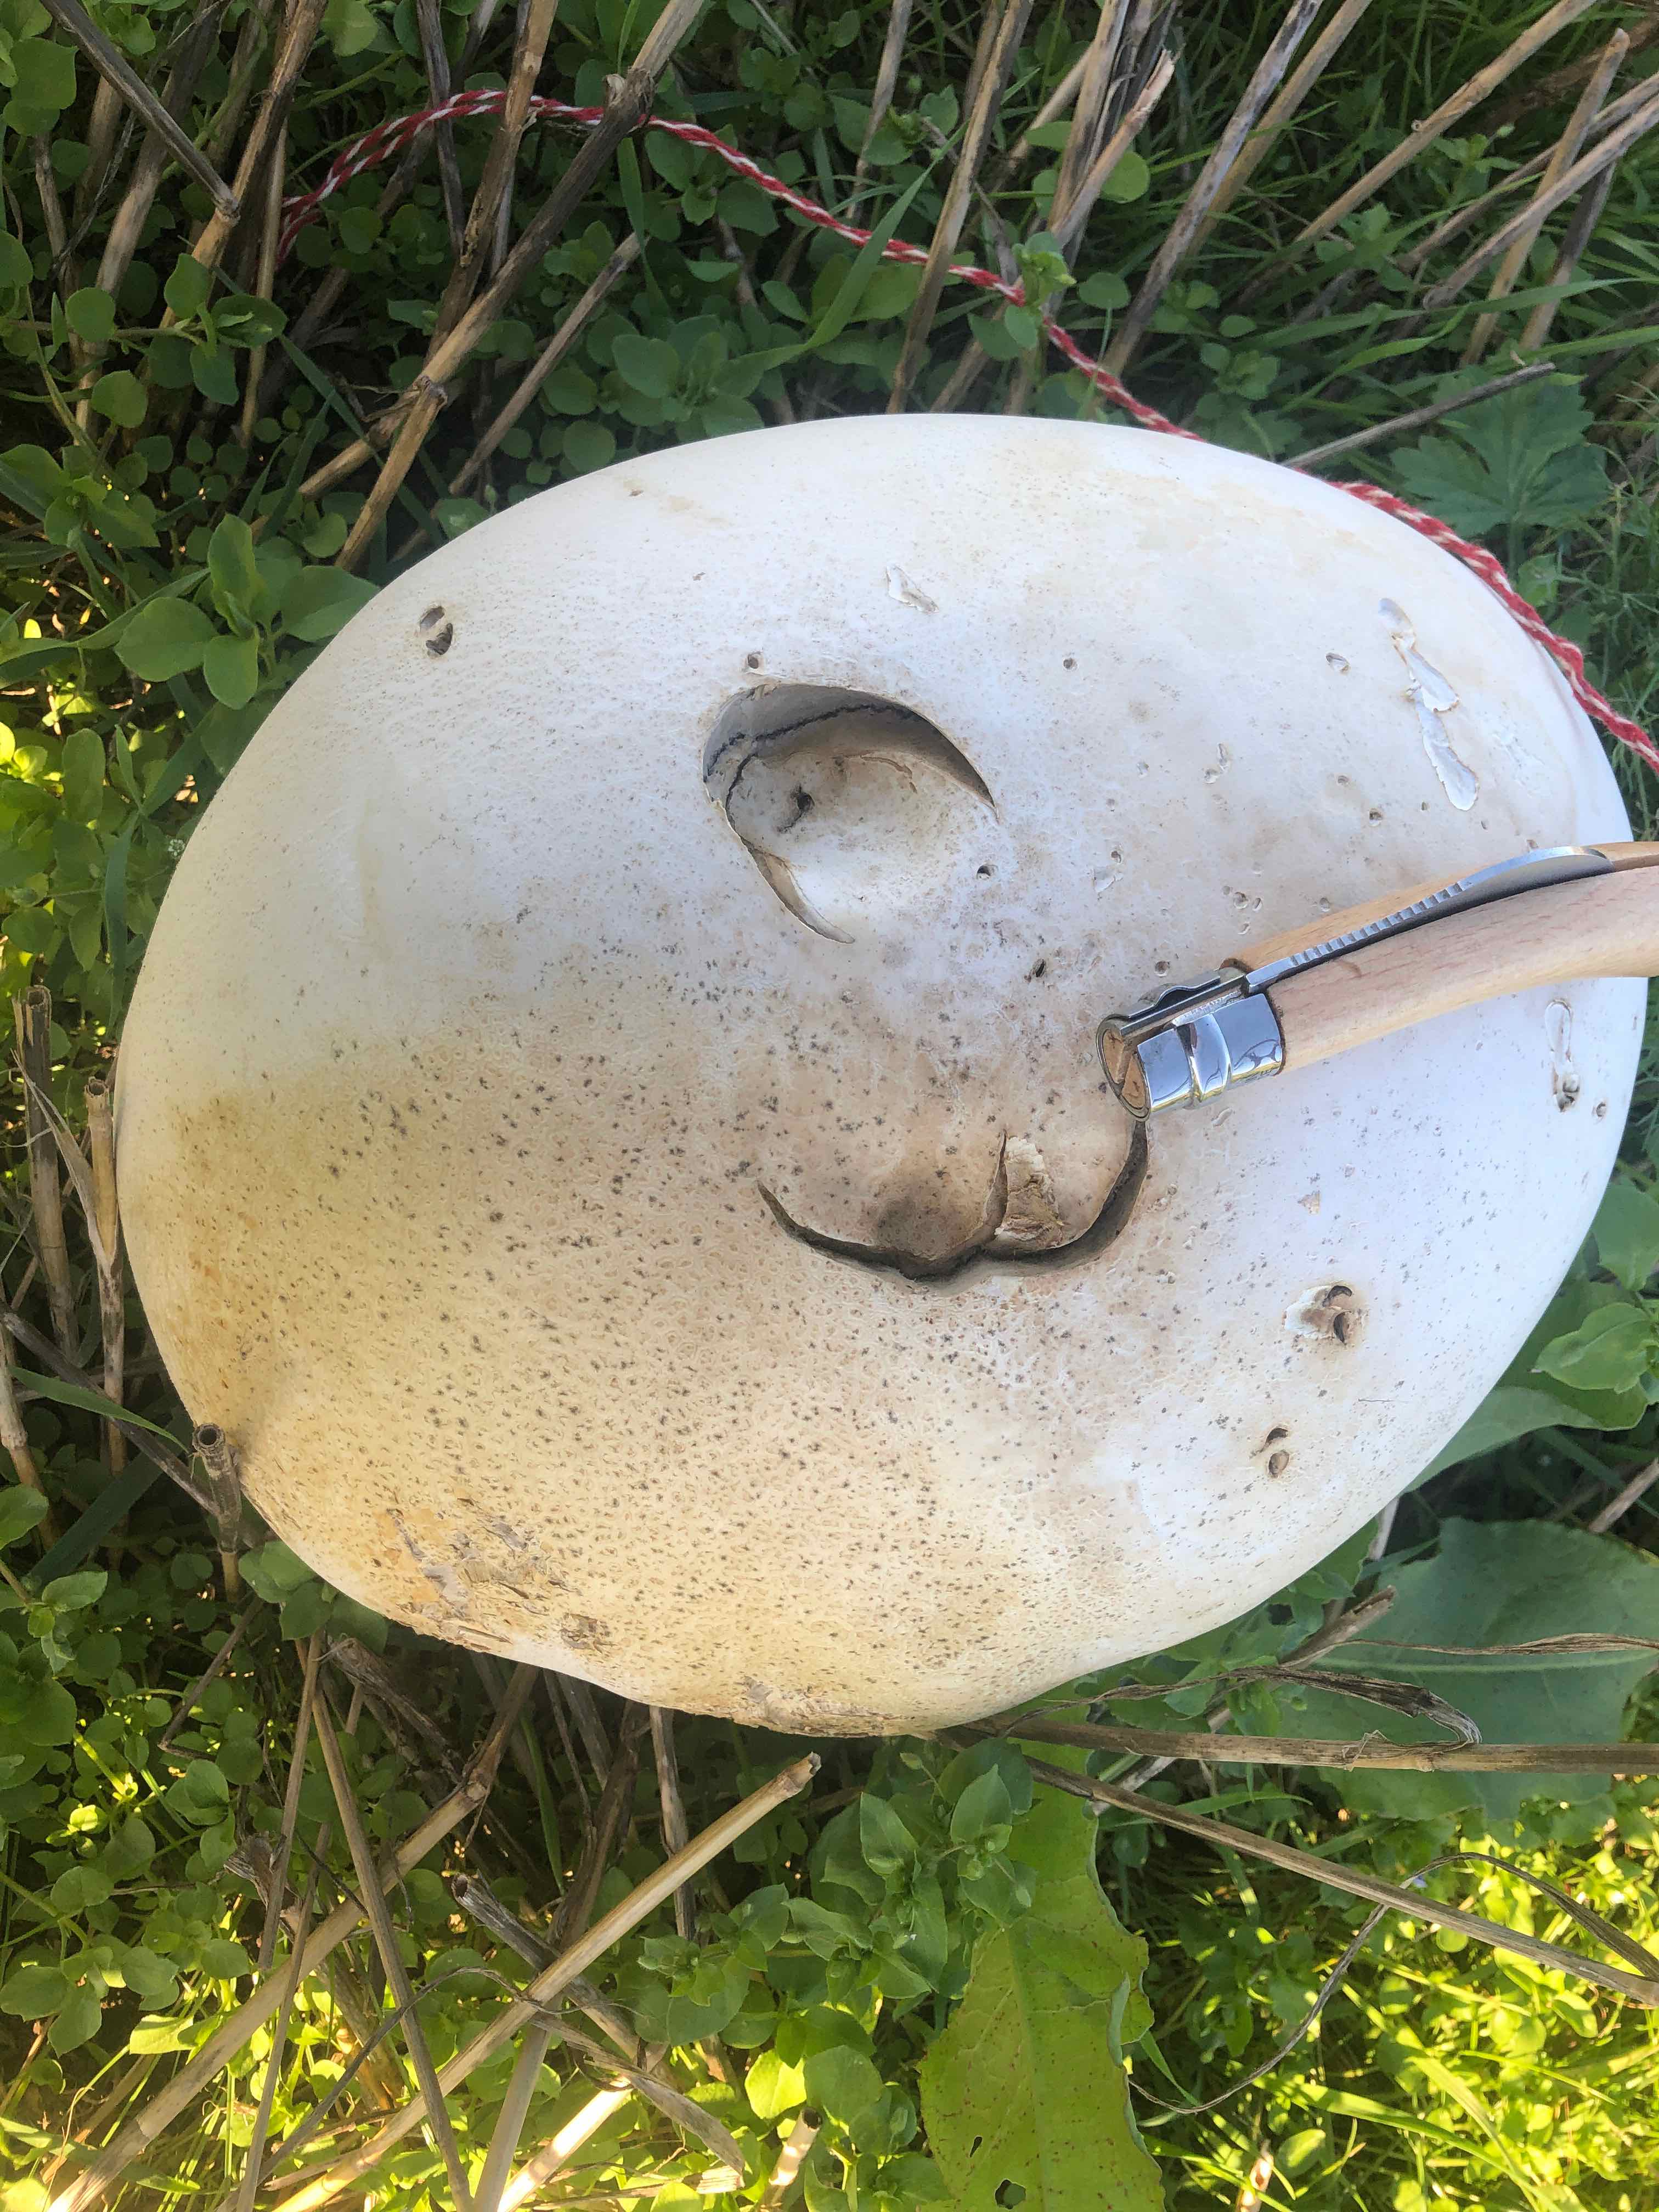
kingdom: Fungi
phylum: Basidiomycota
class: Agaricomycetes
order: Agaricales
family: Lycoperdaceae
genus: Calvatia
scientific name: Calvatia gigantea
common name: kæmpestøvbold
